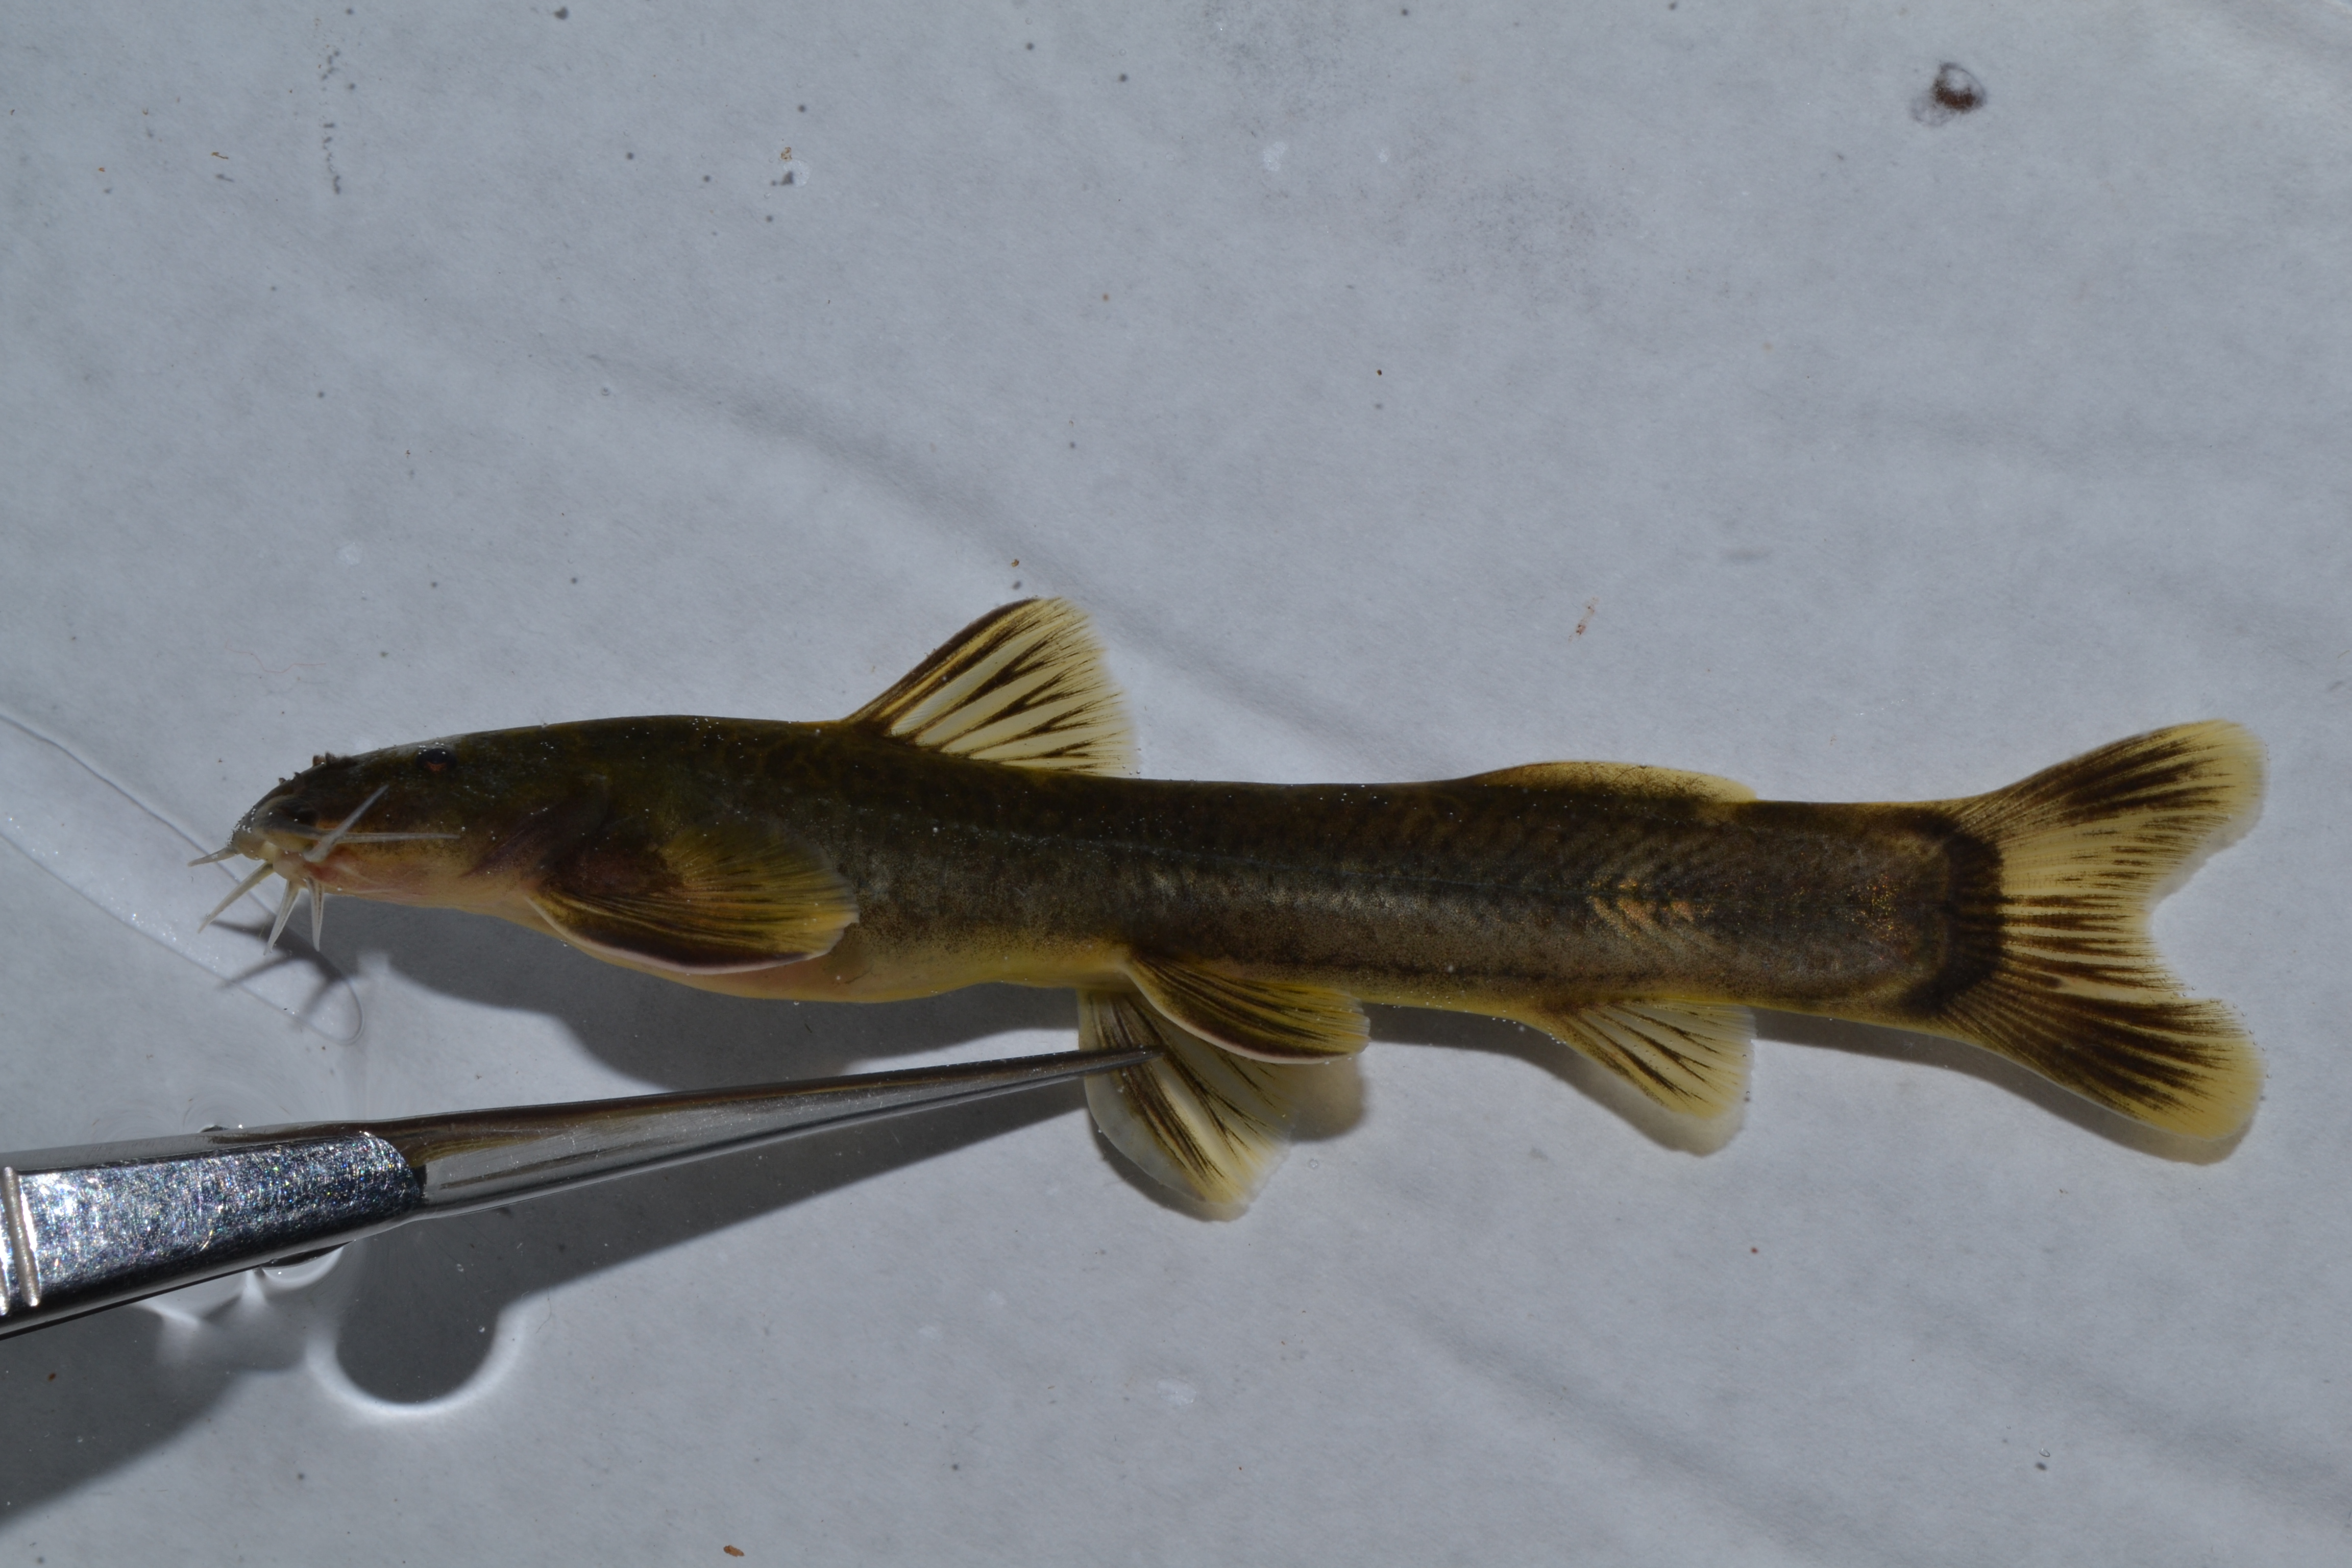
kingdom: Animalia
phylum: Chordata
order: Siluriformes
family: Amphiliidae
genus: Amphilius
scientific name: Amphilius uranoscopus
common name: Stargazer mountain catfish
